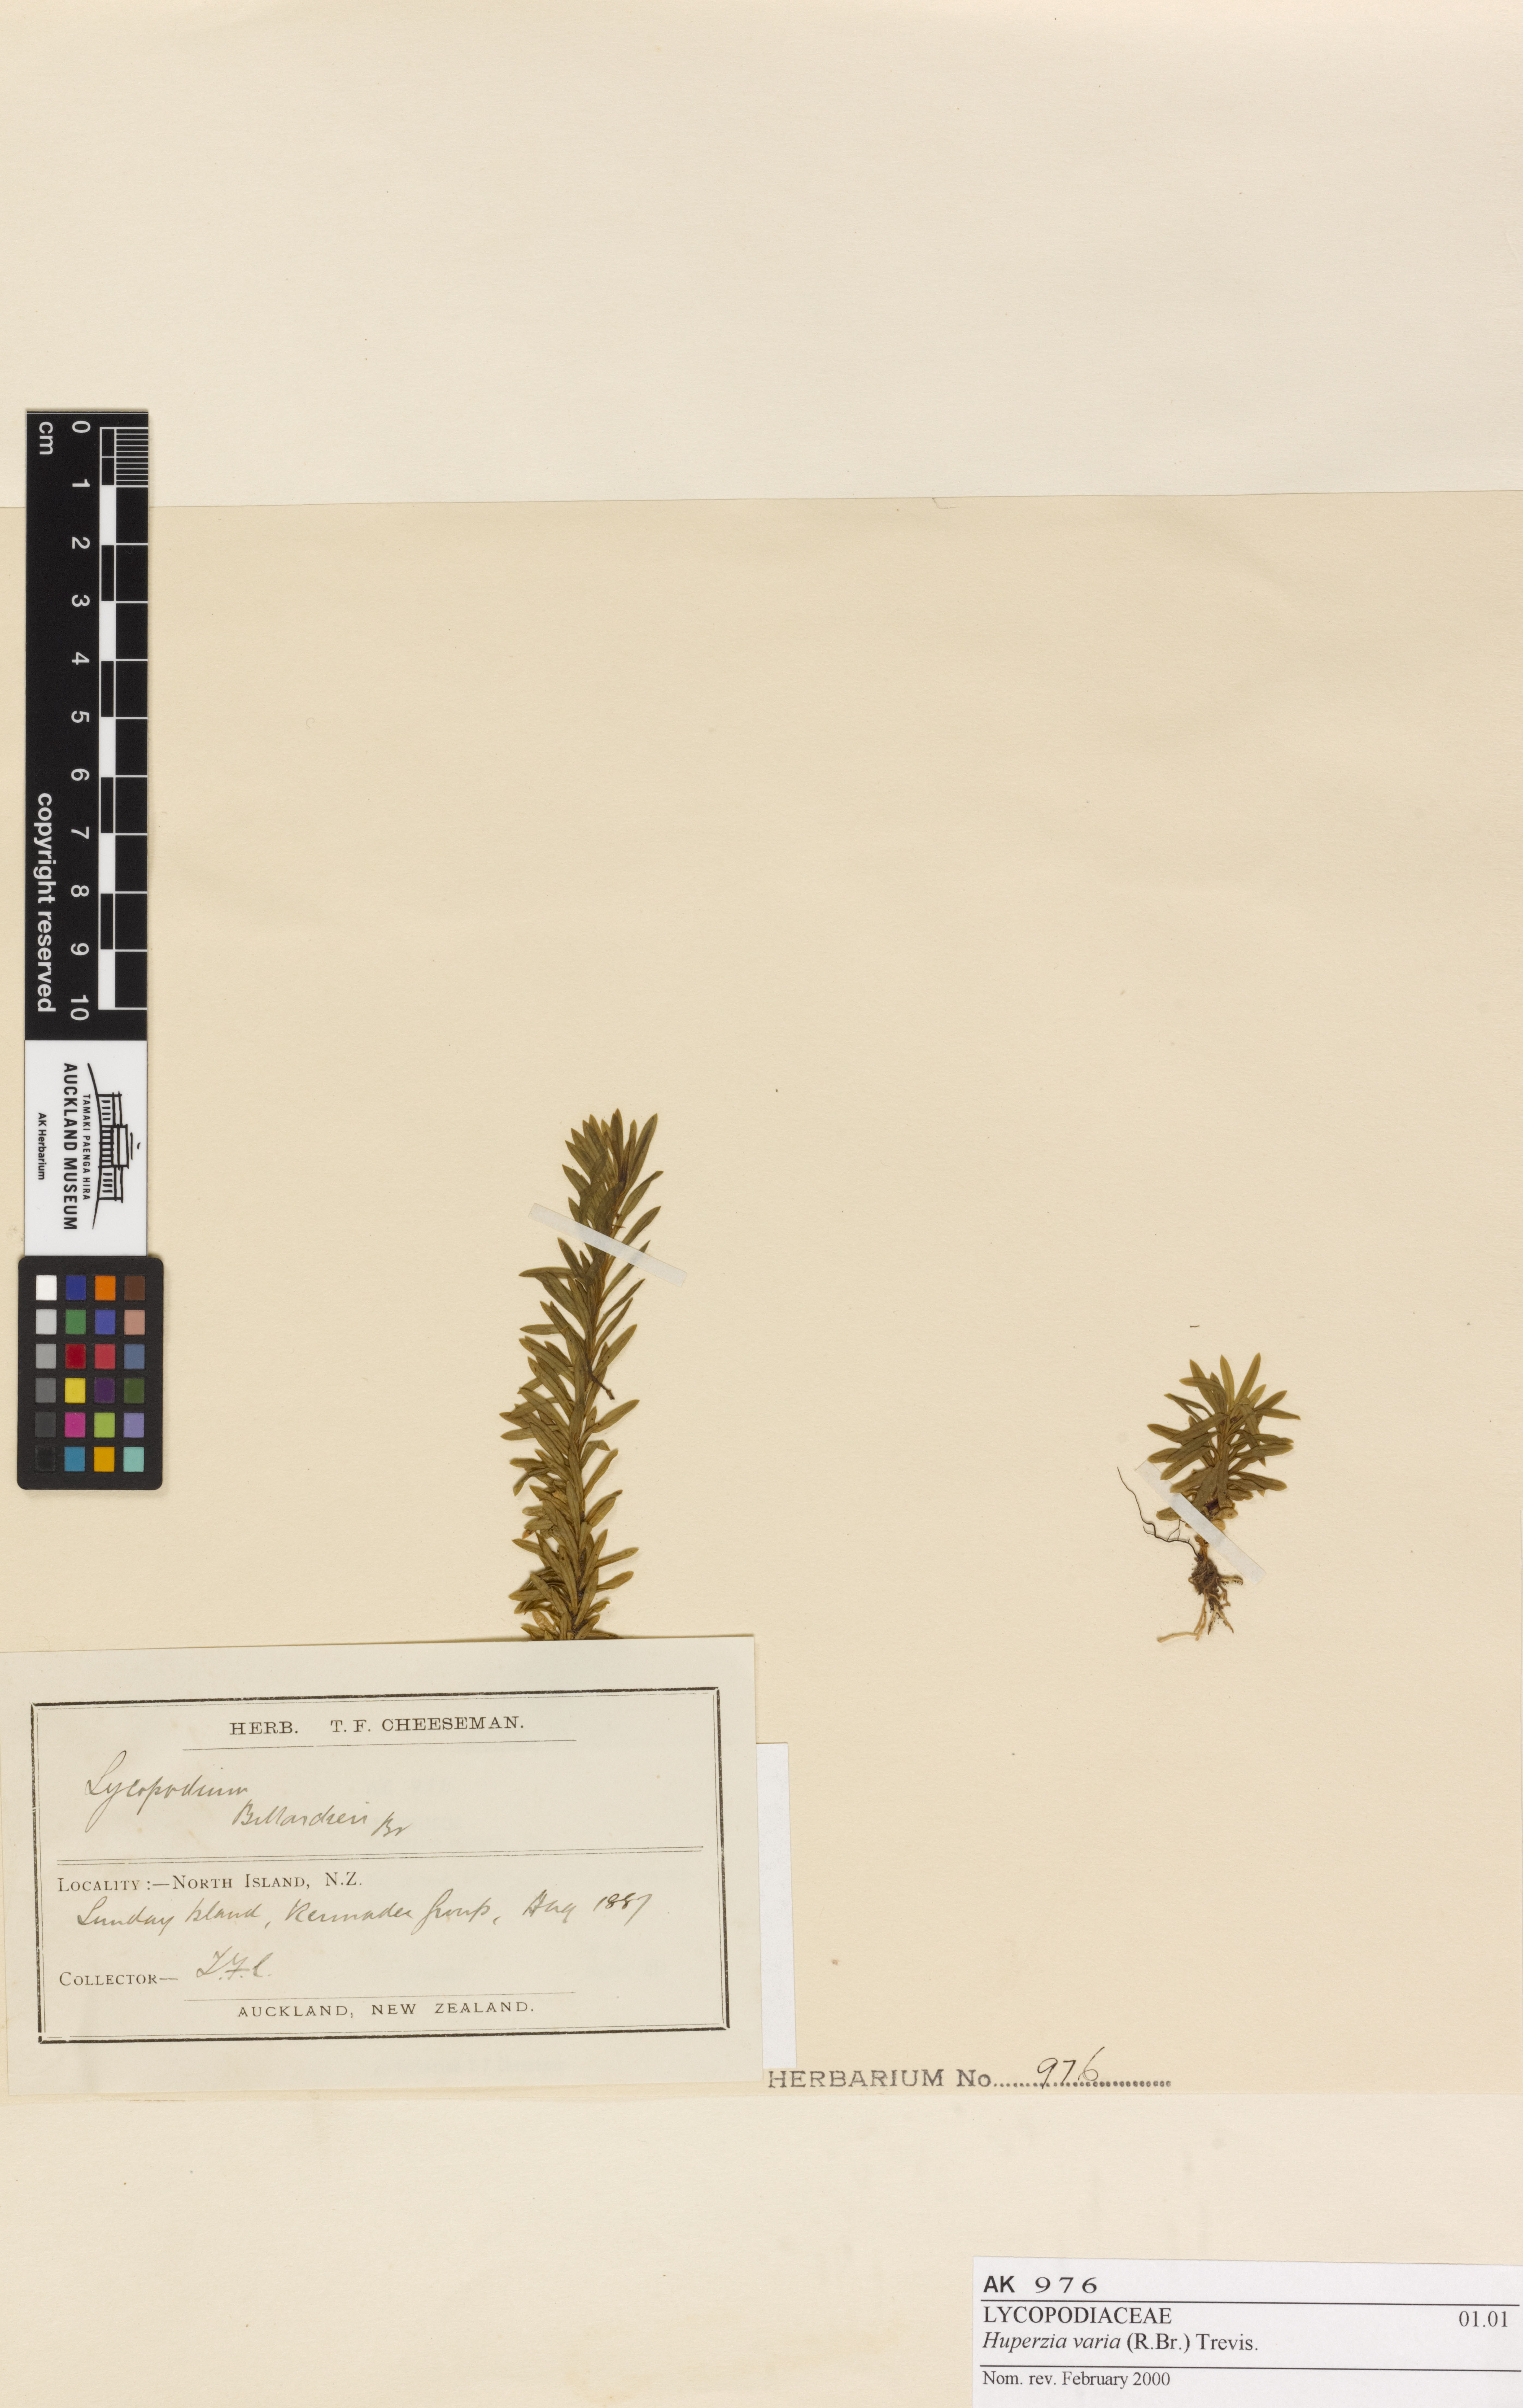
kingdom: Plantae
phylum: Tracheophyta
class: Lycopodiopsida
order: Lycopodiales
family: Lycopodiaceae
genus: Phlegmariurus
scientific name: Phlegmariurus billardierei
